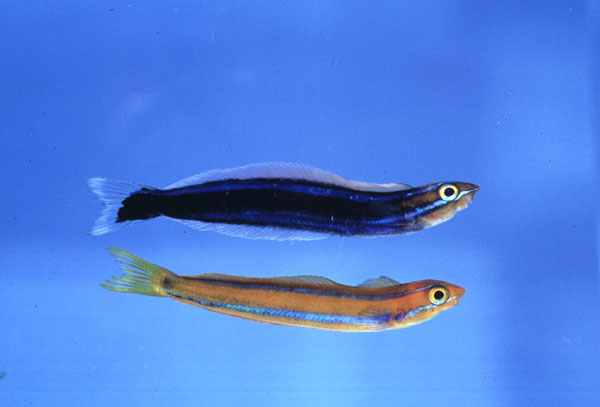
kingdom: Animalia
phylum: Chordata
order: Perciformes
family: Blenniidae
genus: Plagiotremus
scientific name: Plagiotremus rhinorhynchos
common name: Bluestriped fangblenny
